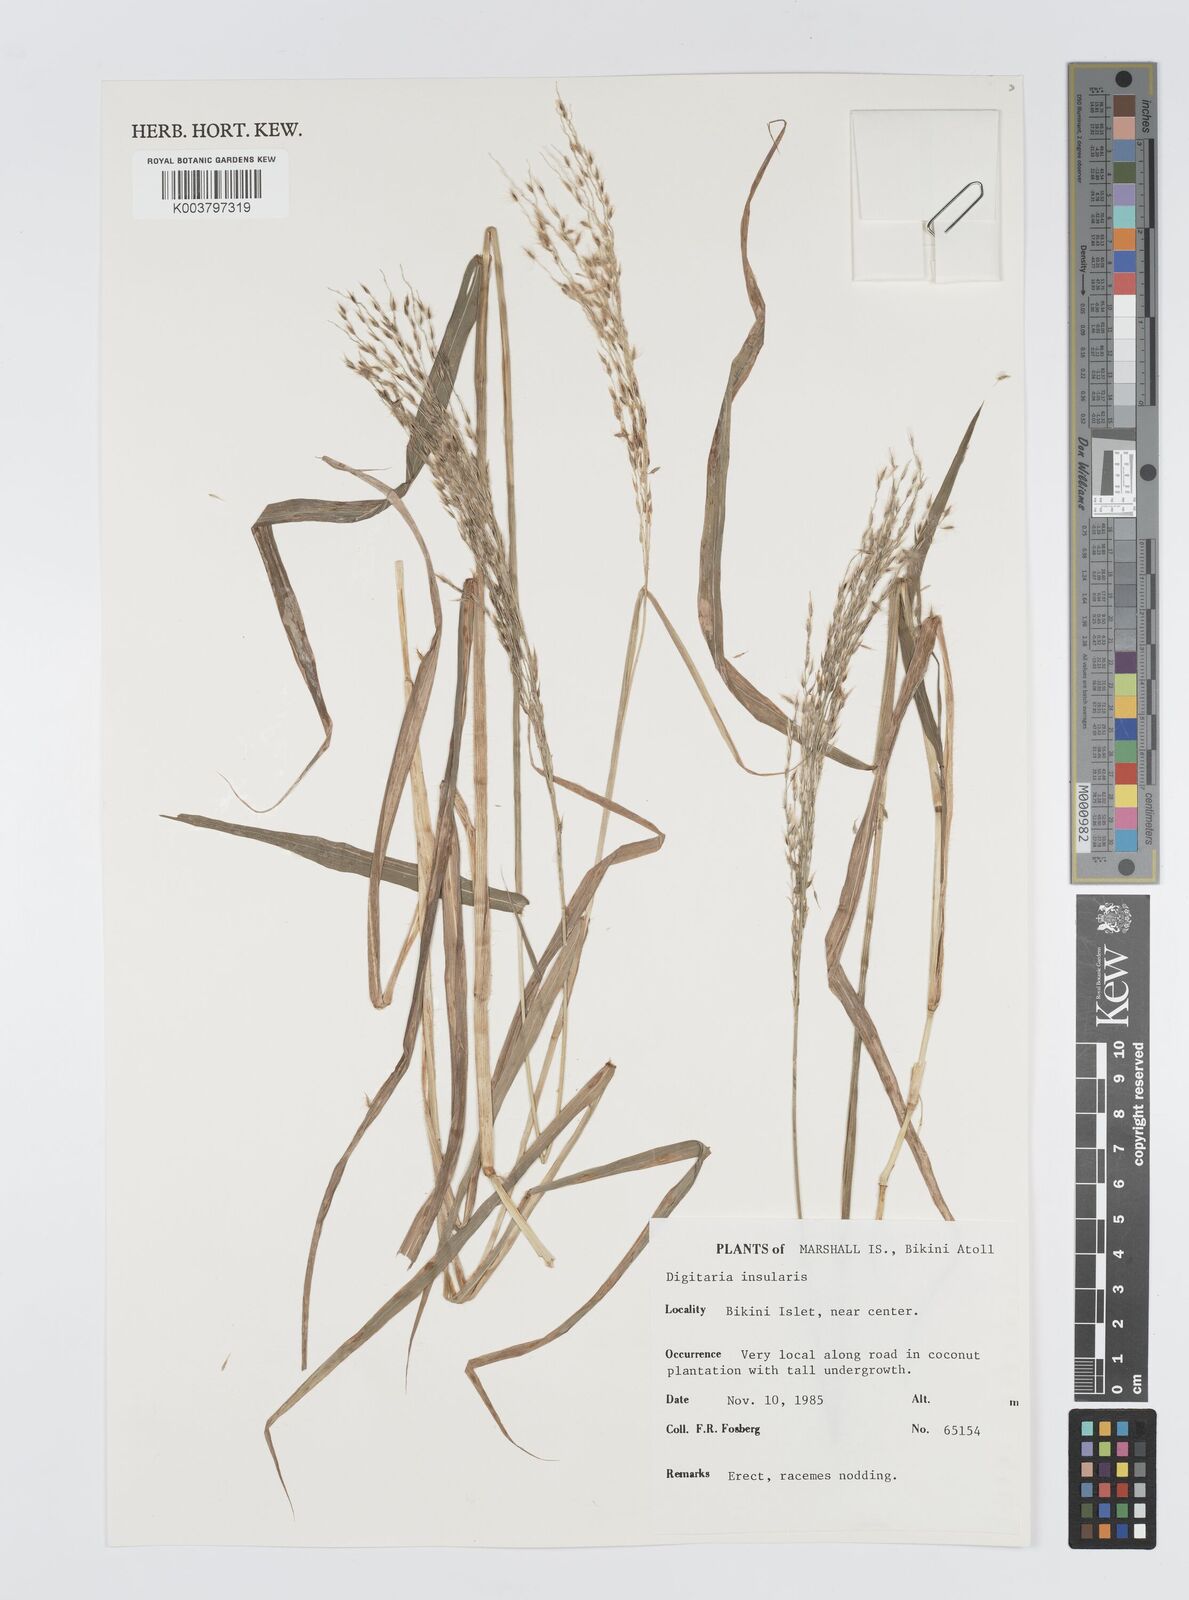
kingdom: Plantae
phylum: Tracheophyta
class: Liliopsida
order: Poales
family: Poaceae
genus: Digitaria
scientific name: Digitaria insularis
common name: Sourgrass
